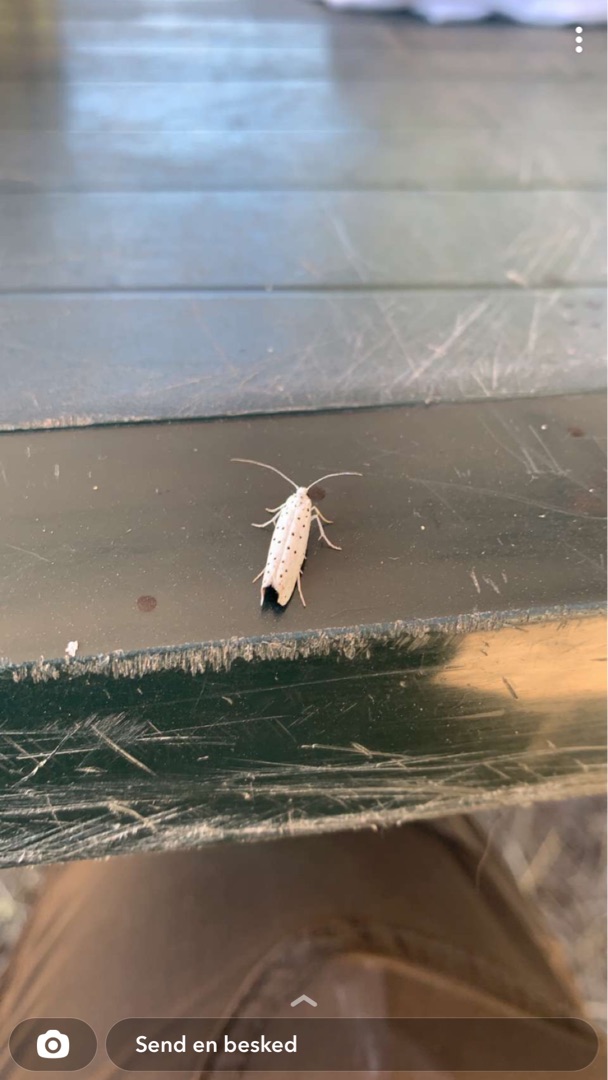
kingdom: Animalia
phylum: Arthropoda
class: Insecta
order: Lepidoptera
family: Yponomeutidae
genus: Yponomeuta
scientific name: Yponomeuta
